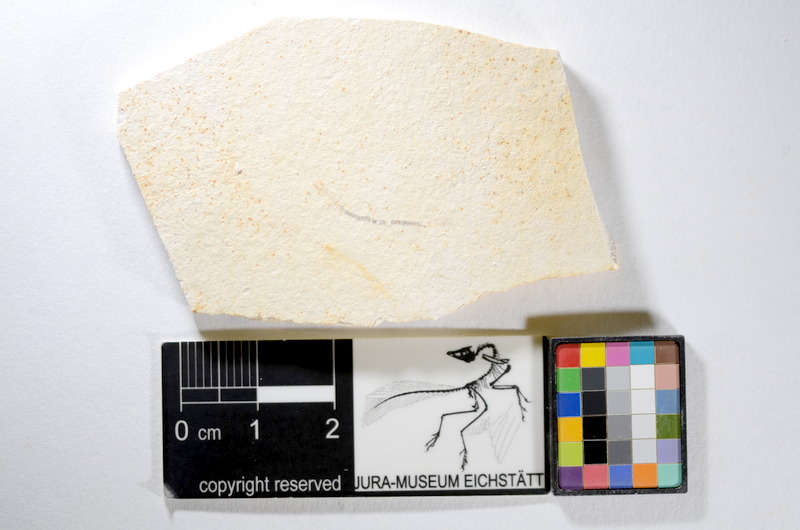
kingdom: Animalia
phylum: Chordata
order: Salmoniformes
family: Orthogonikleithridae
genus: Orthogonikleithrus
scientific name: Orthogonikleithrus hoelli
